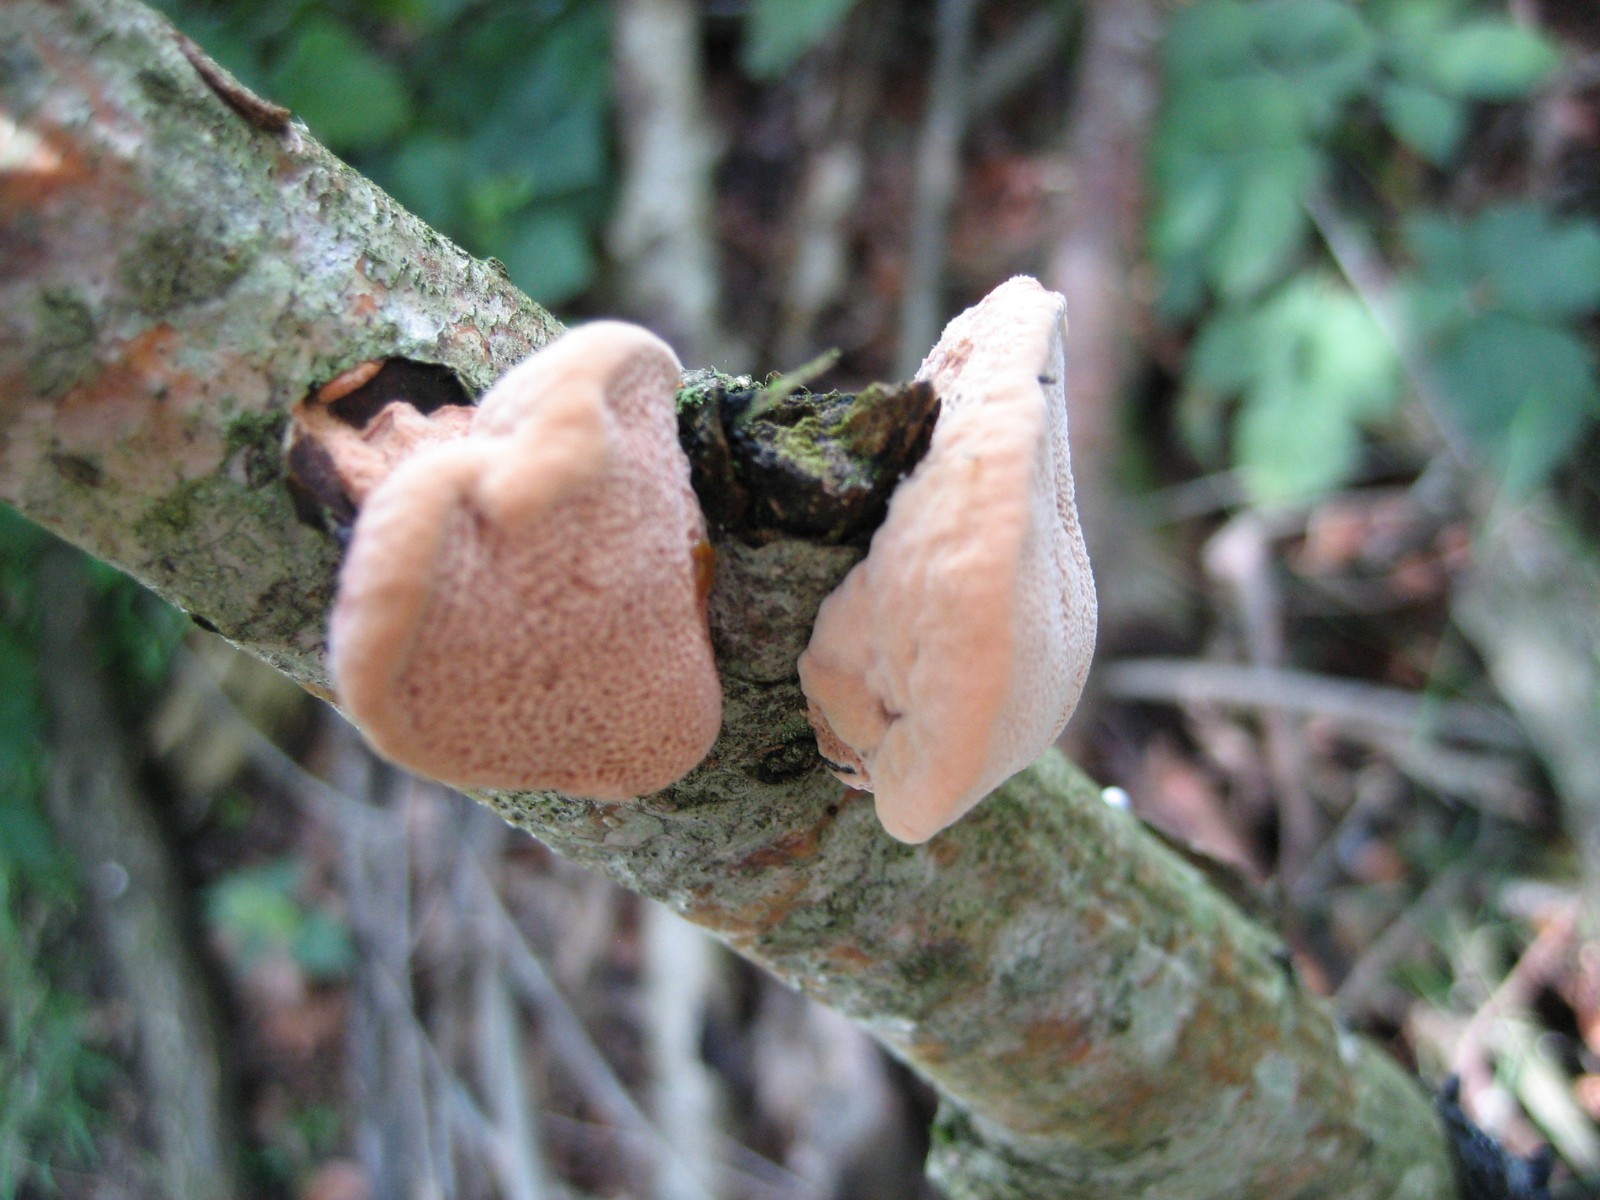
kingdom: Fungi
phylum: Basidiomycota
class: Agaricomycetes
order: Polyporales
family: Phanerochaetaceae
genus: Hapalopilus
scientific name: Hapalopilus rutilans
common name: rødlig okkerporesvamp
